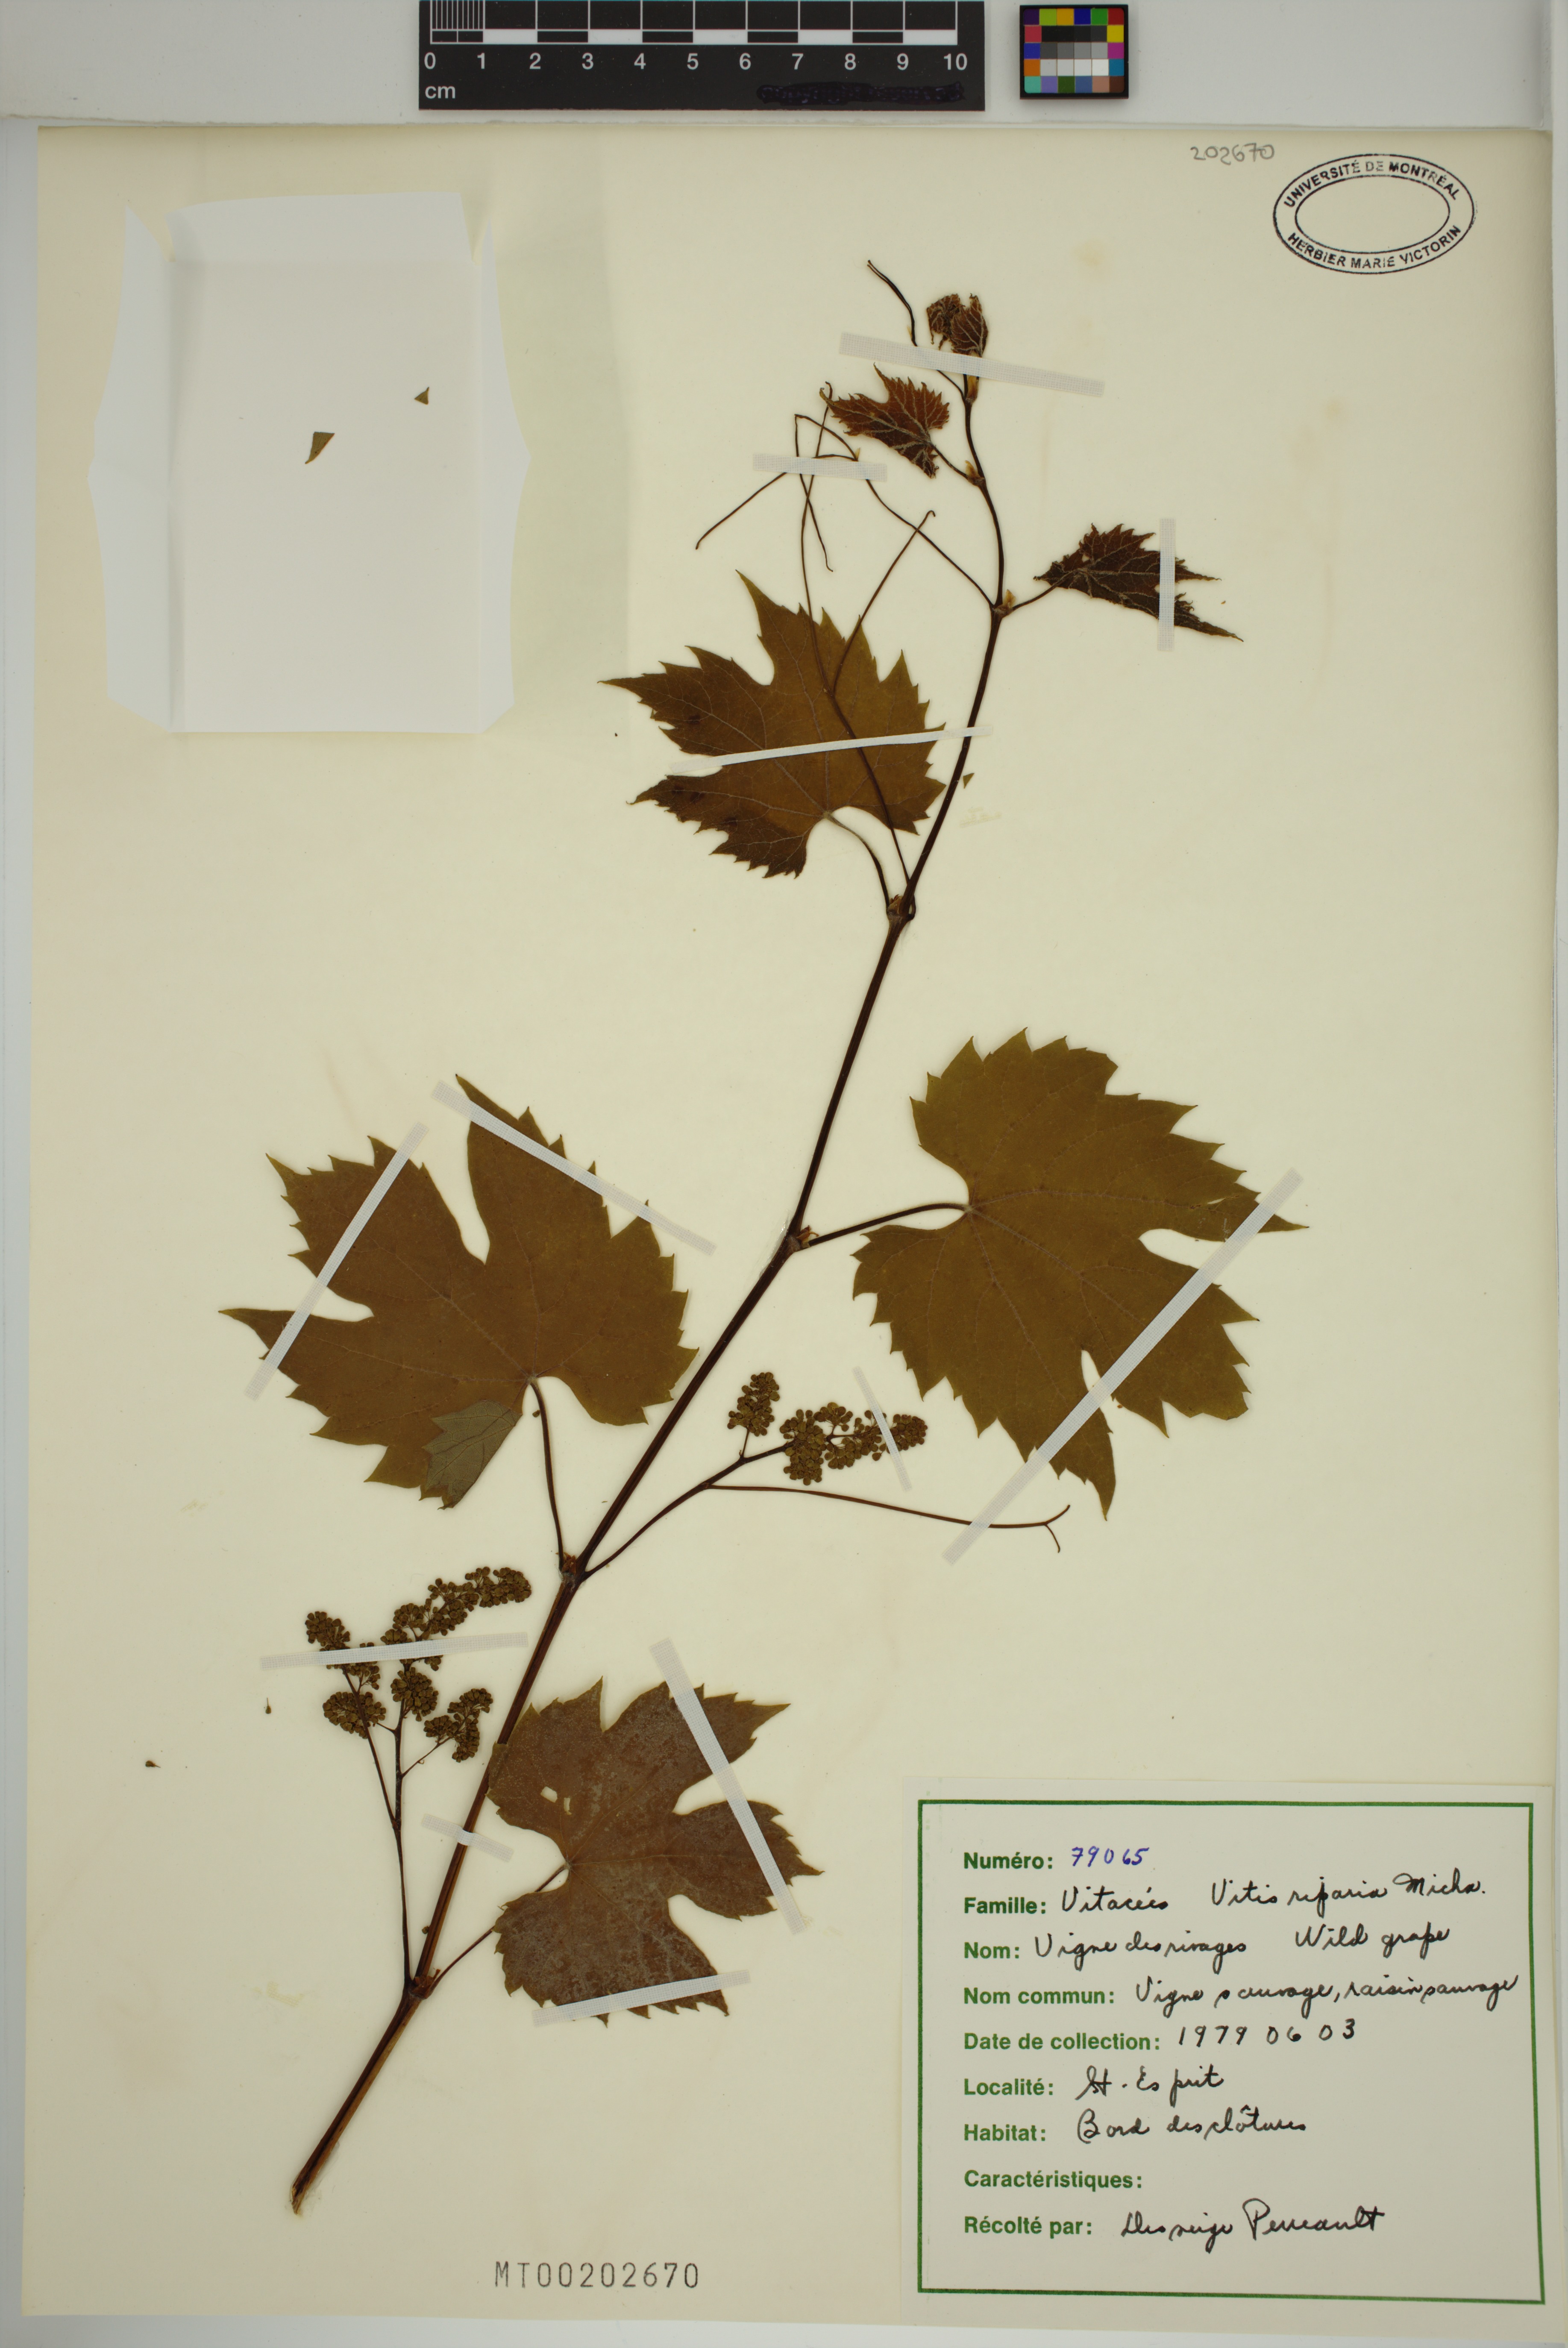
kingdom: Plantae
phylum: Tracheophyta
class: Magnoliopsida
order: Vitales
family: Vitaceae
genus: Vitis
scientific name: Vitis riparia
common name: Frost grape
